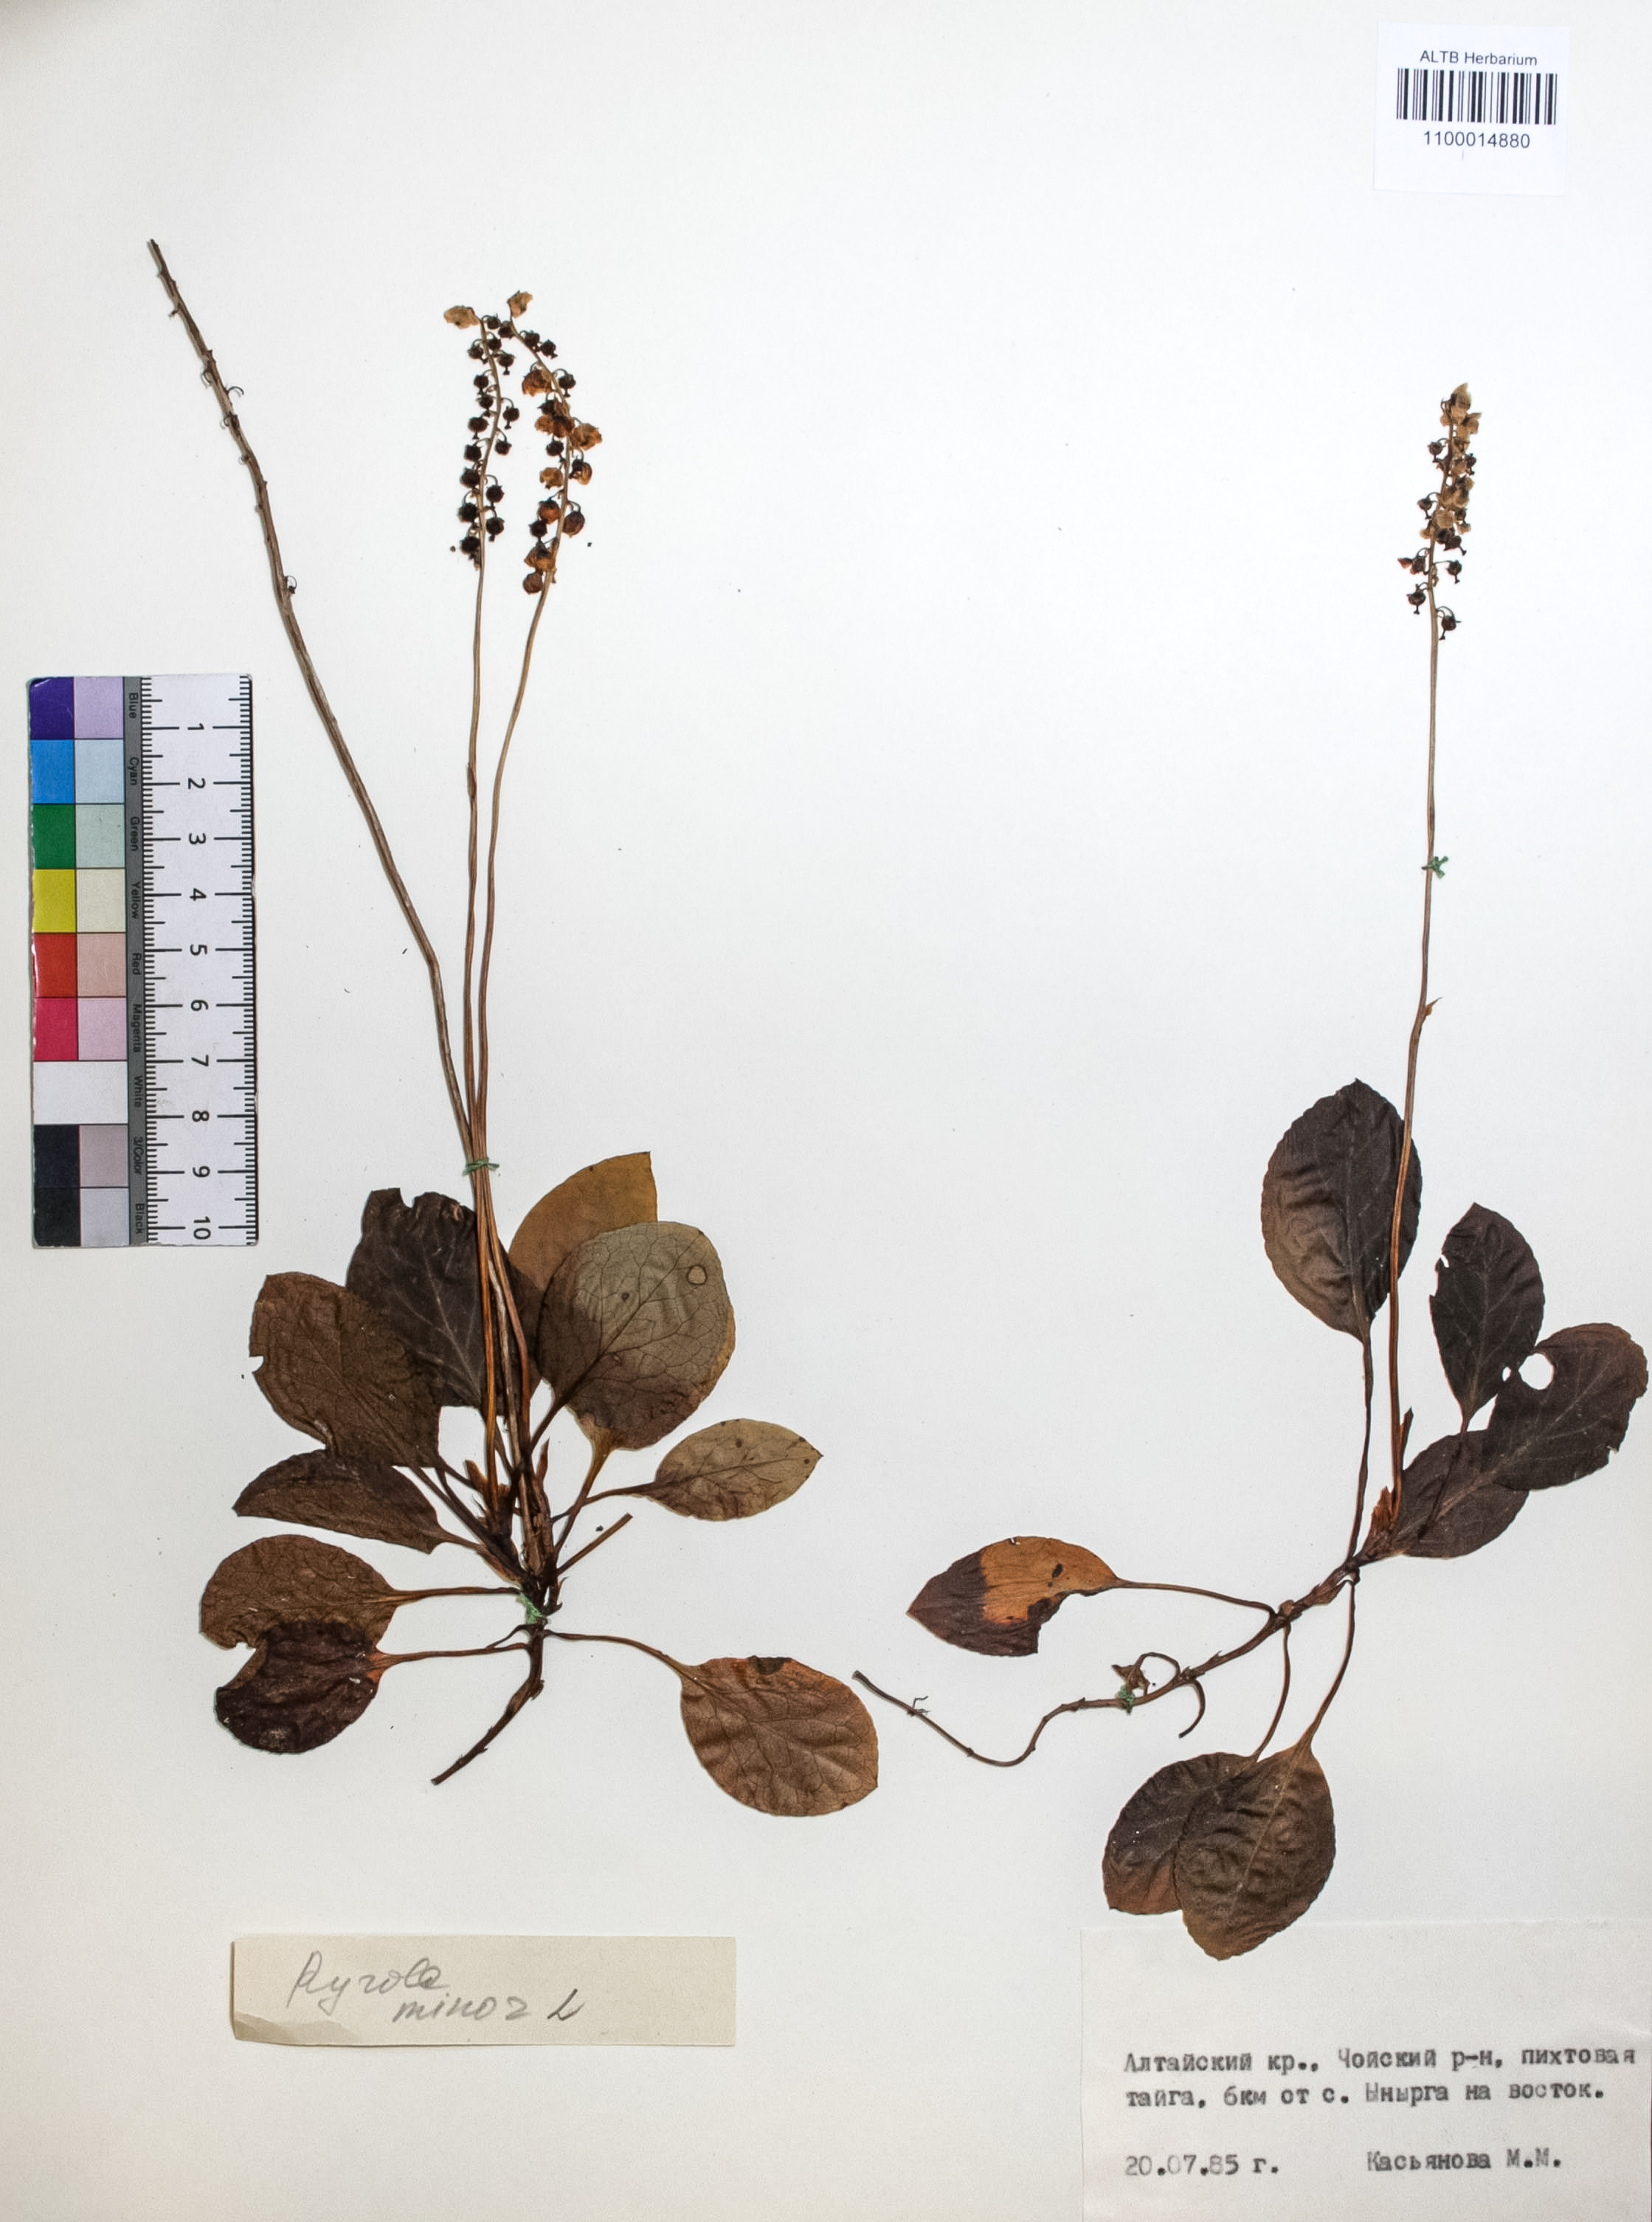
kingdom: Plantae
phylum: Tracheophyta
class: Magnoliopsida
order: Ericales
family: Ericaceae
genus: Pyrola
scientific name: Pyrola minor
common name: Common wintergreen
